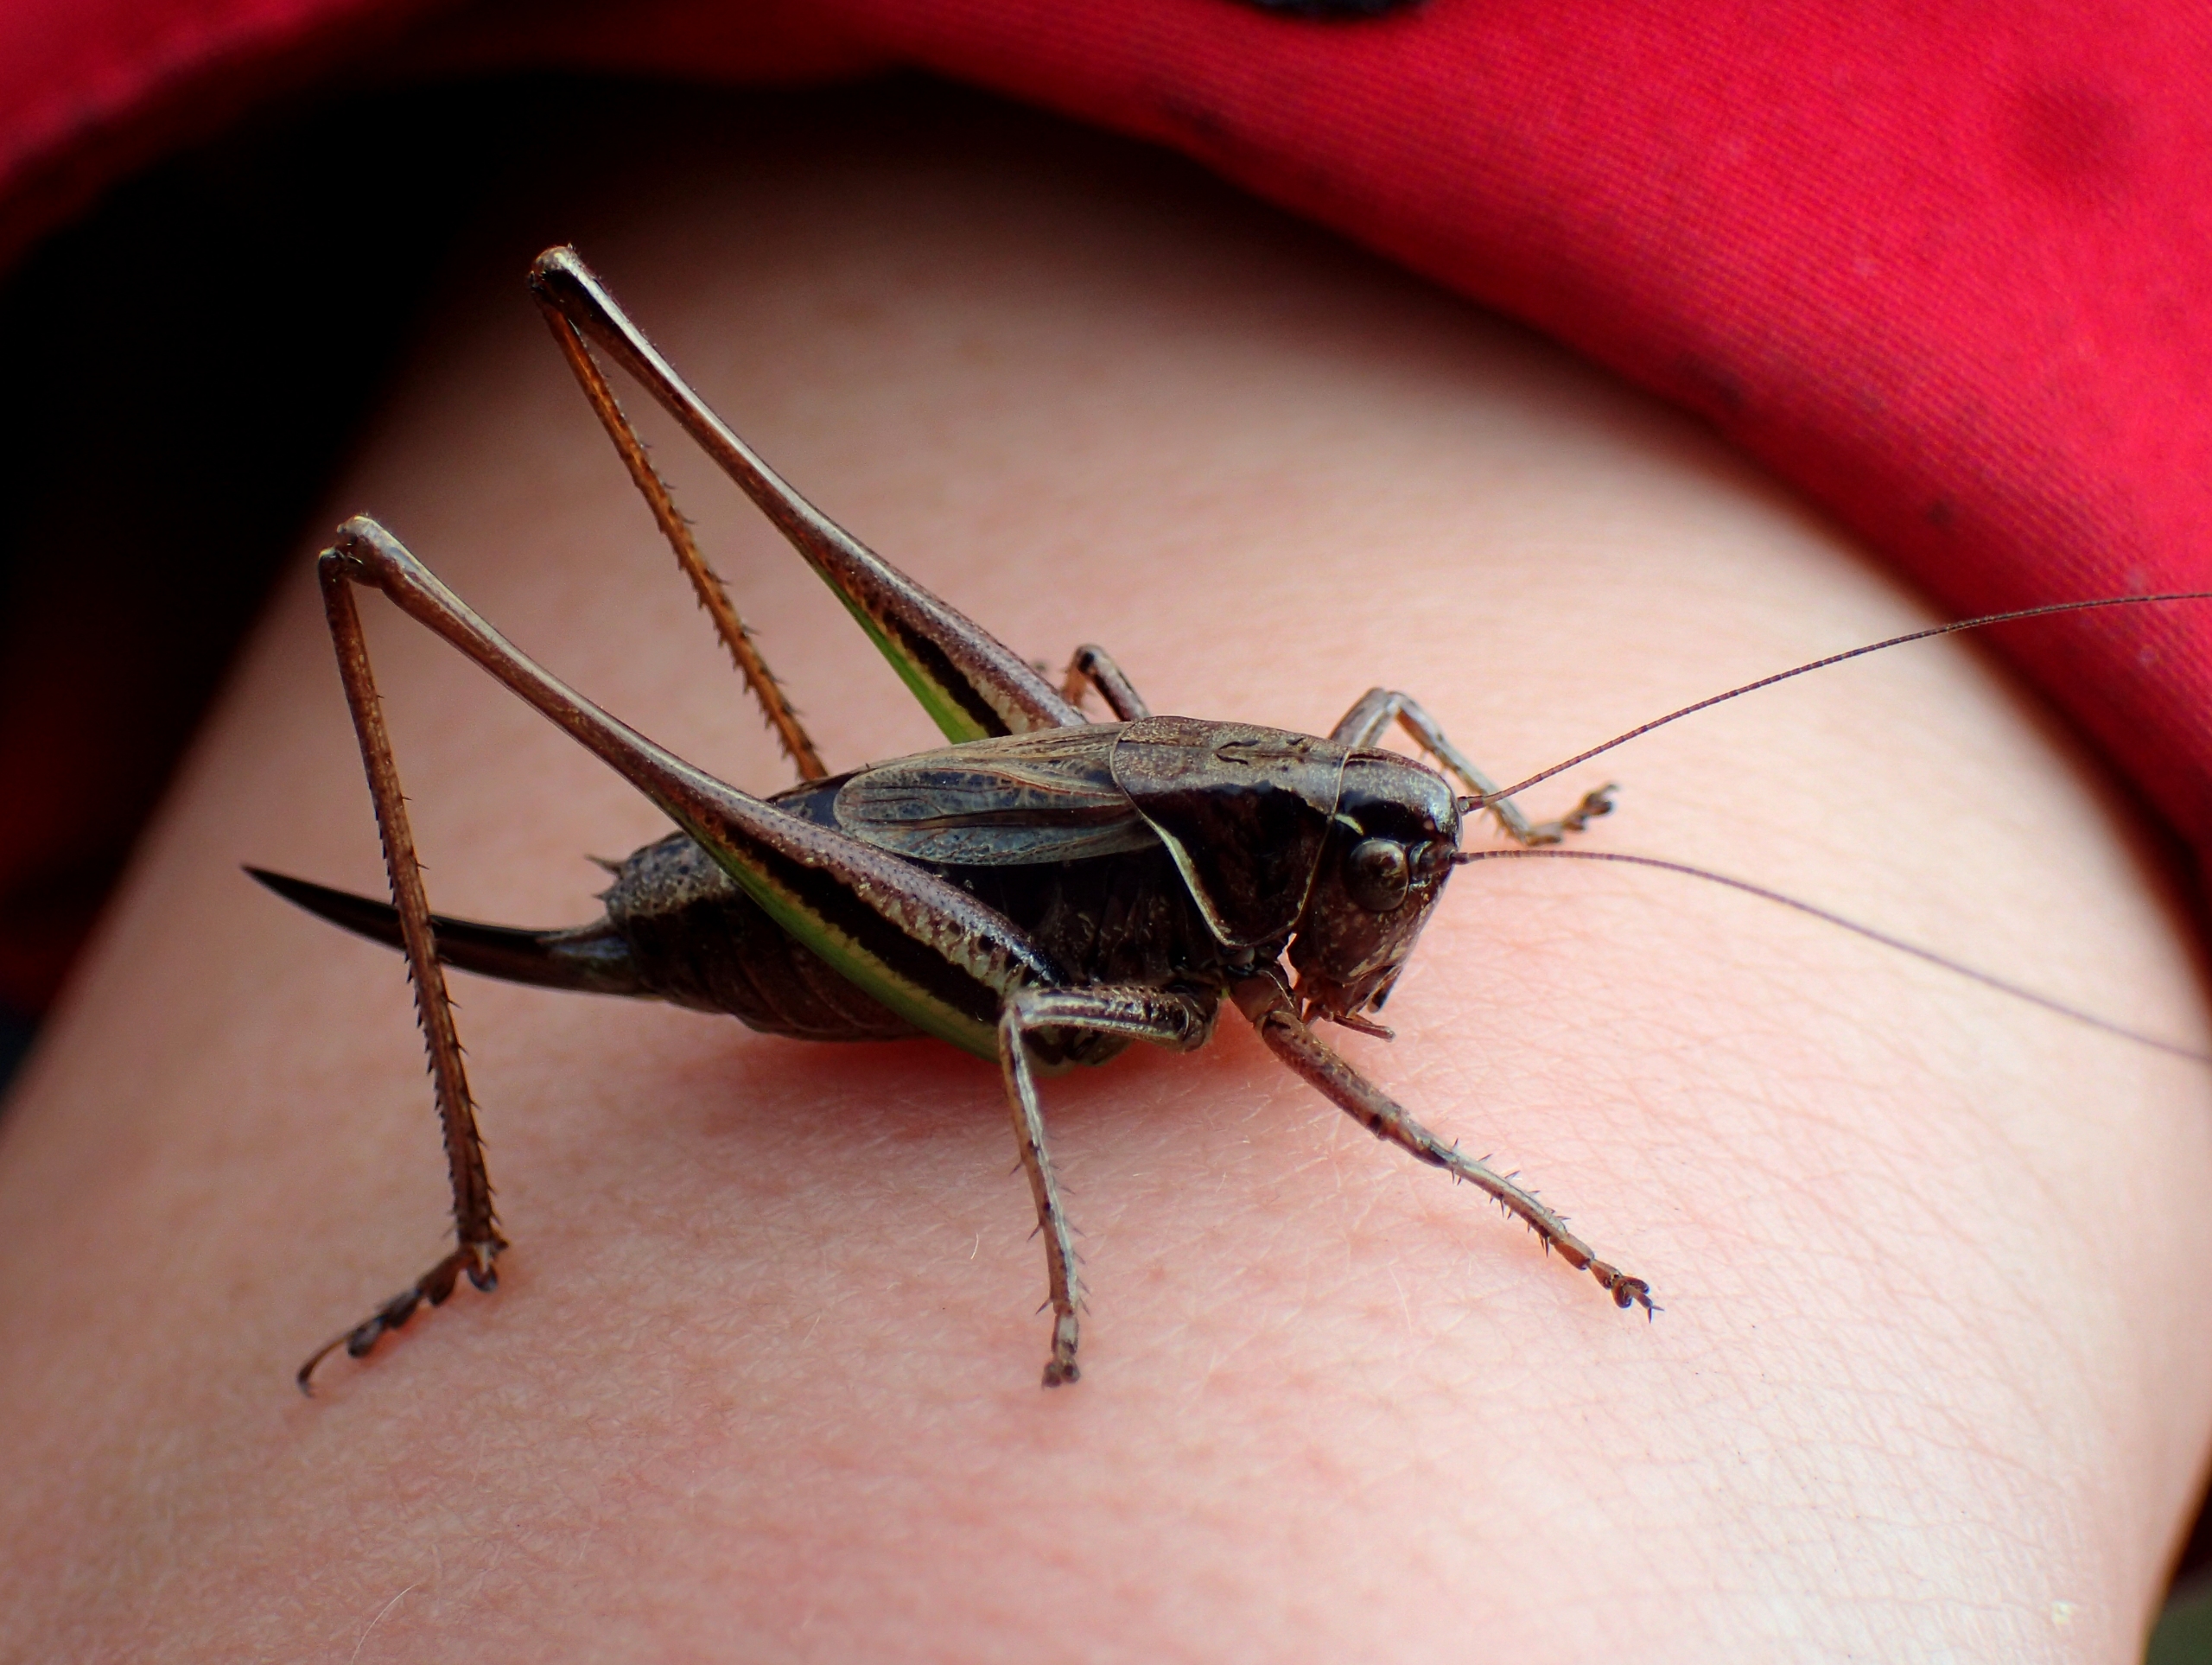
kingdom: Animalia
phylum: Arthropoda
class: Insecta
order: Orthoptera
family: Tettigoniidae
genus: Metrioptera
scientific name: Metrioptera brachyptera
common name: Hedegræshoppe
